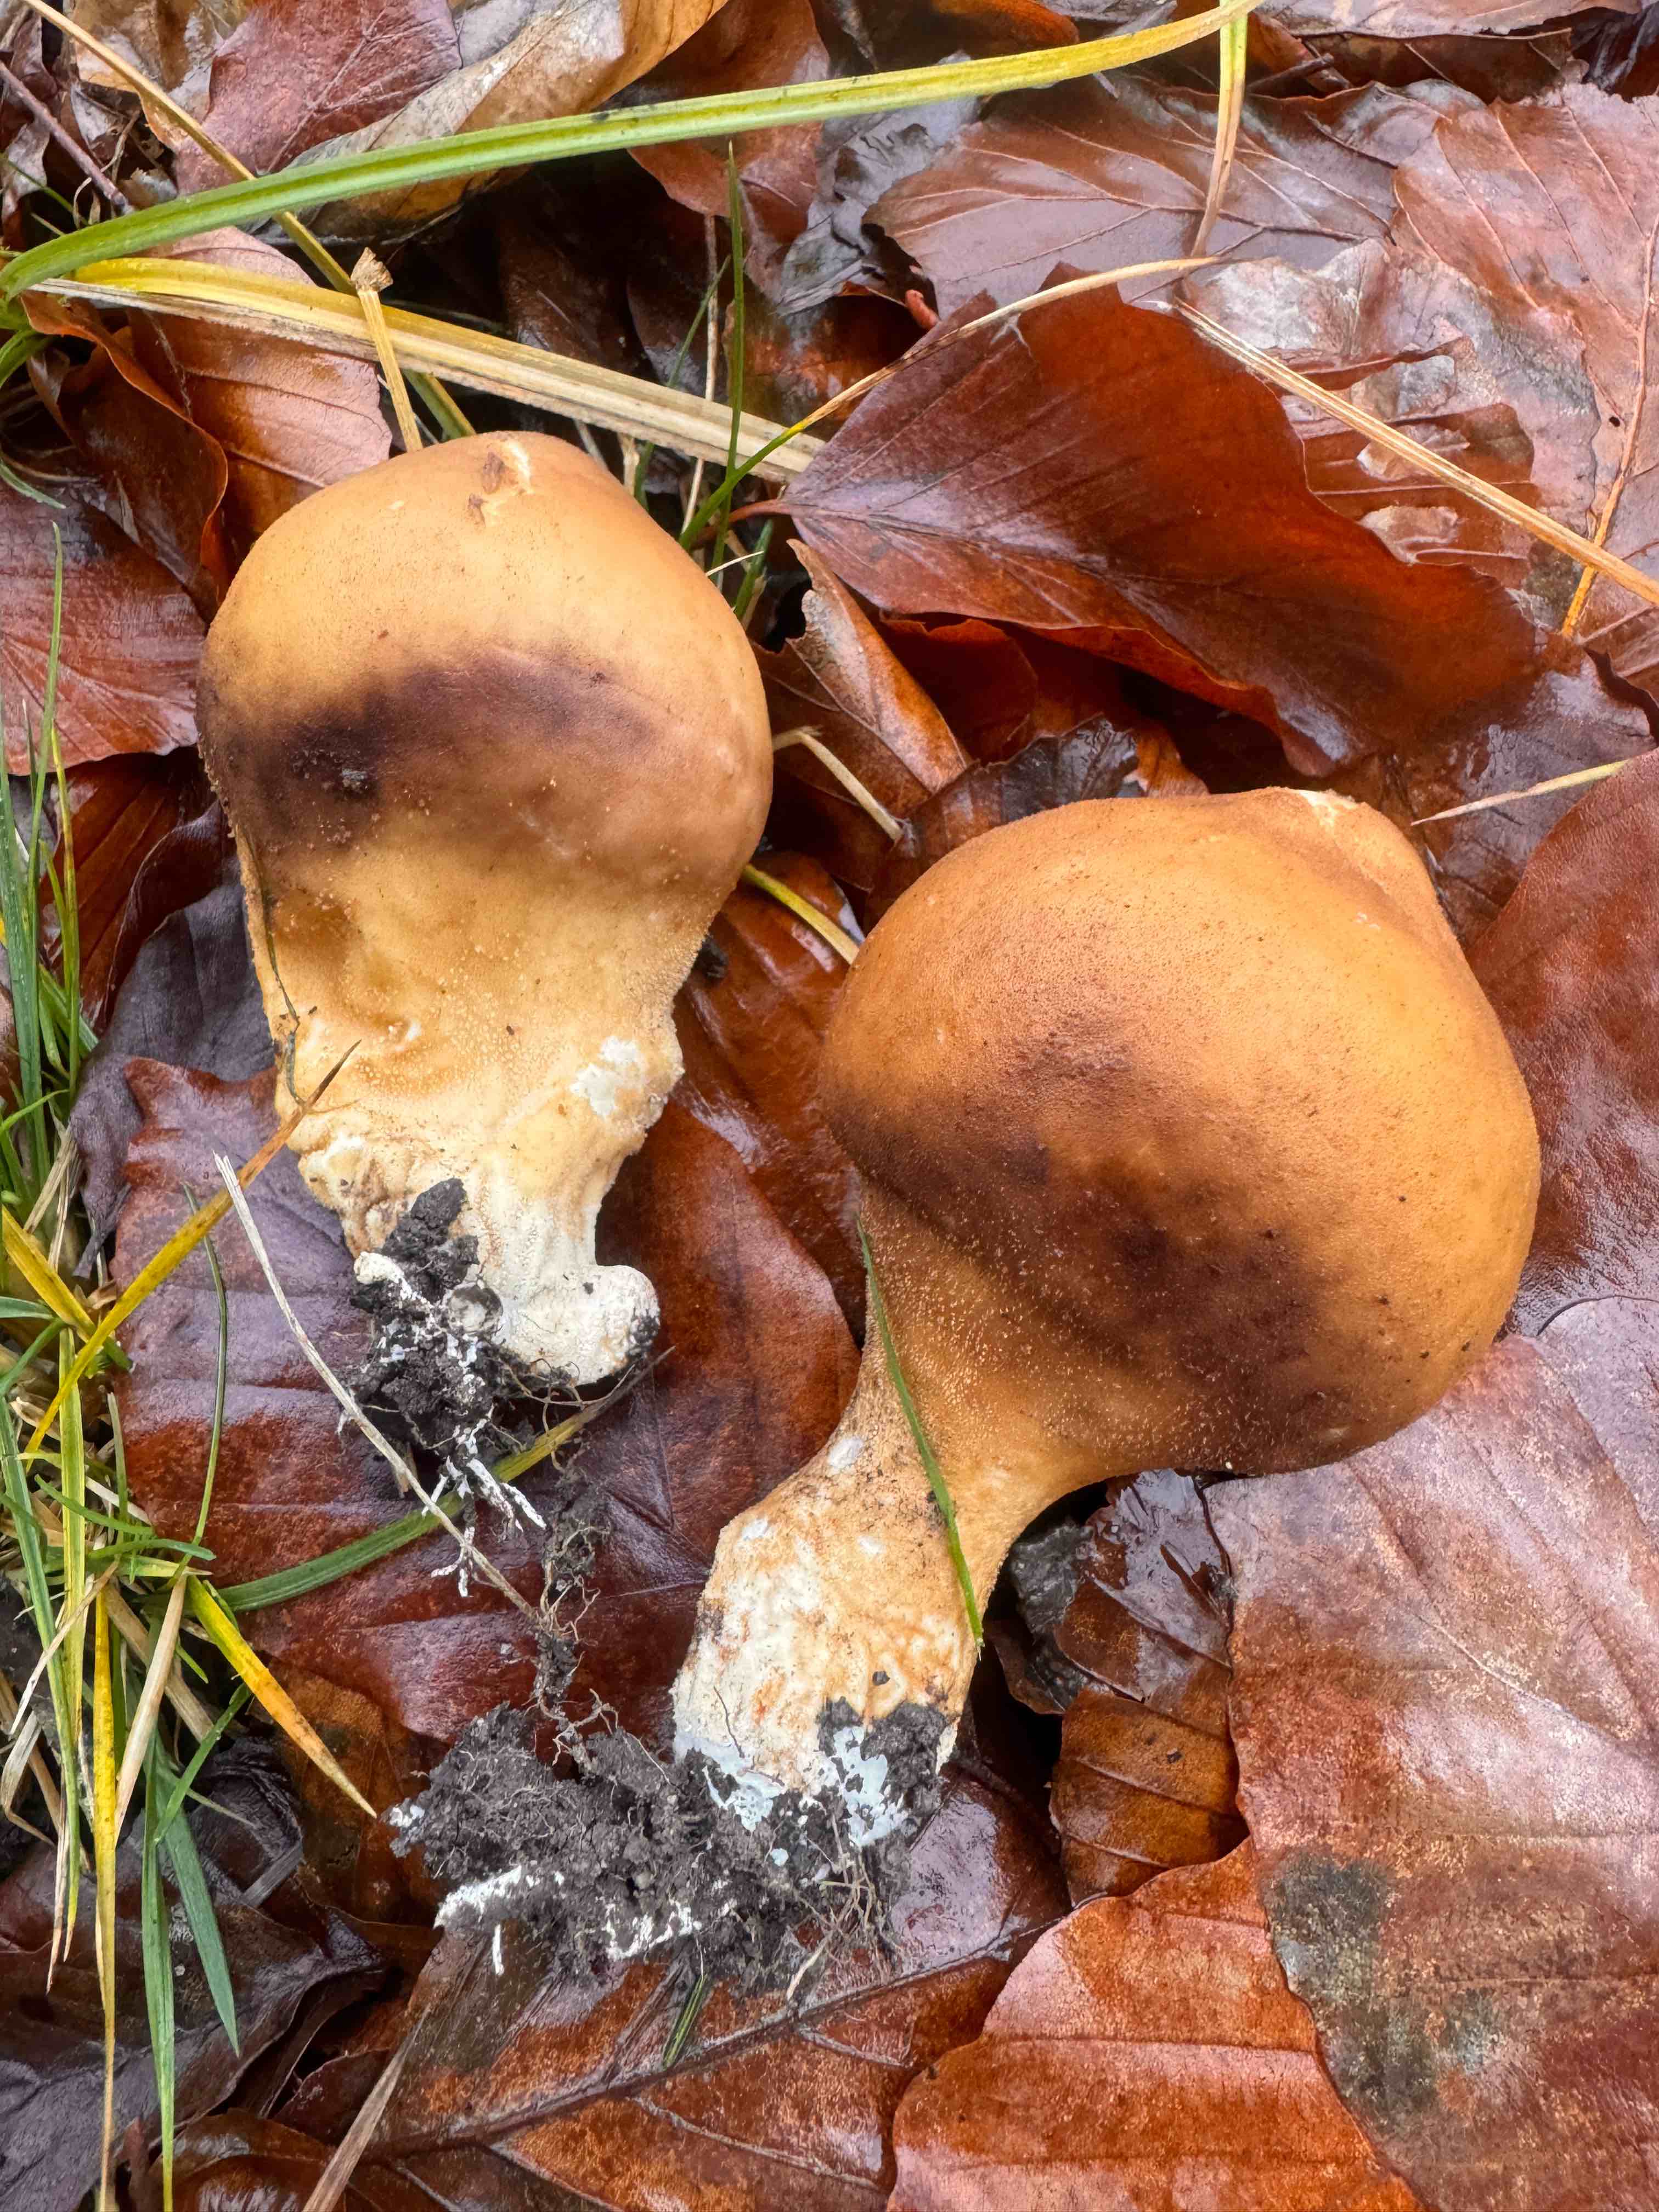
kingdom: Fungi
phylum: Basidiomycota
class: Agaricomycetes
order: Agaricales
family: Lycoperdaceae
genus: Lycoperdon
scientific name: Lycoperdon perlatum
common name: krystal-støvbold
